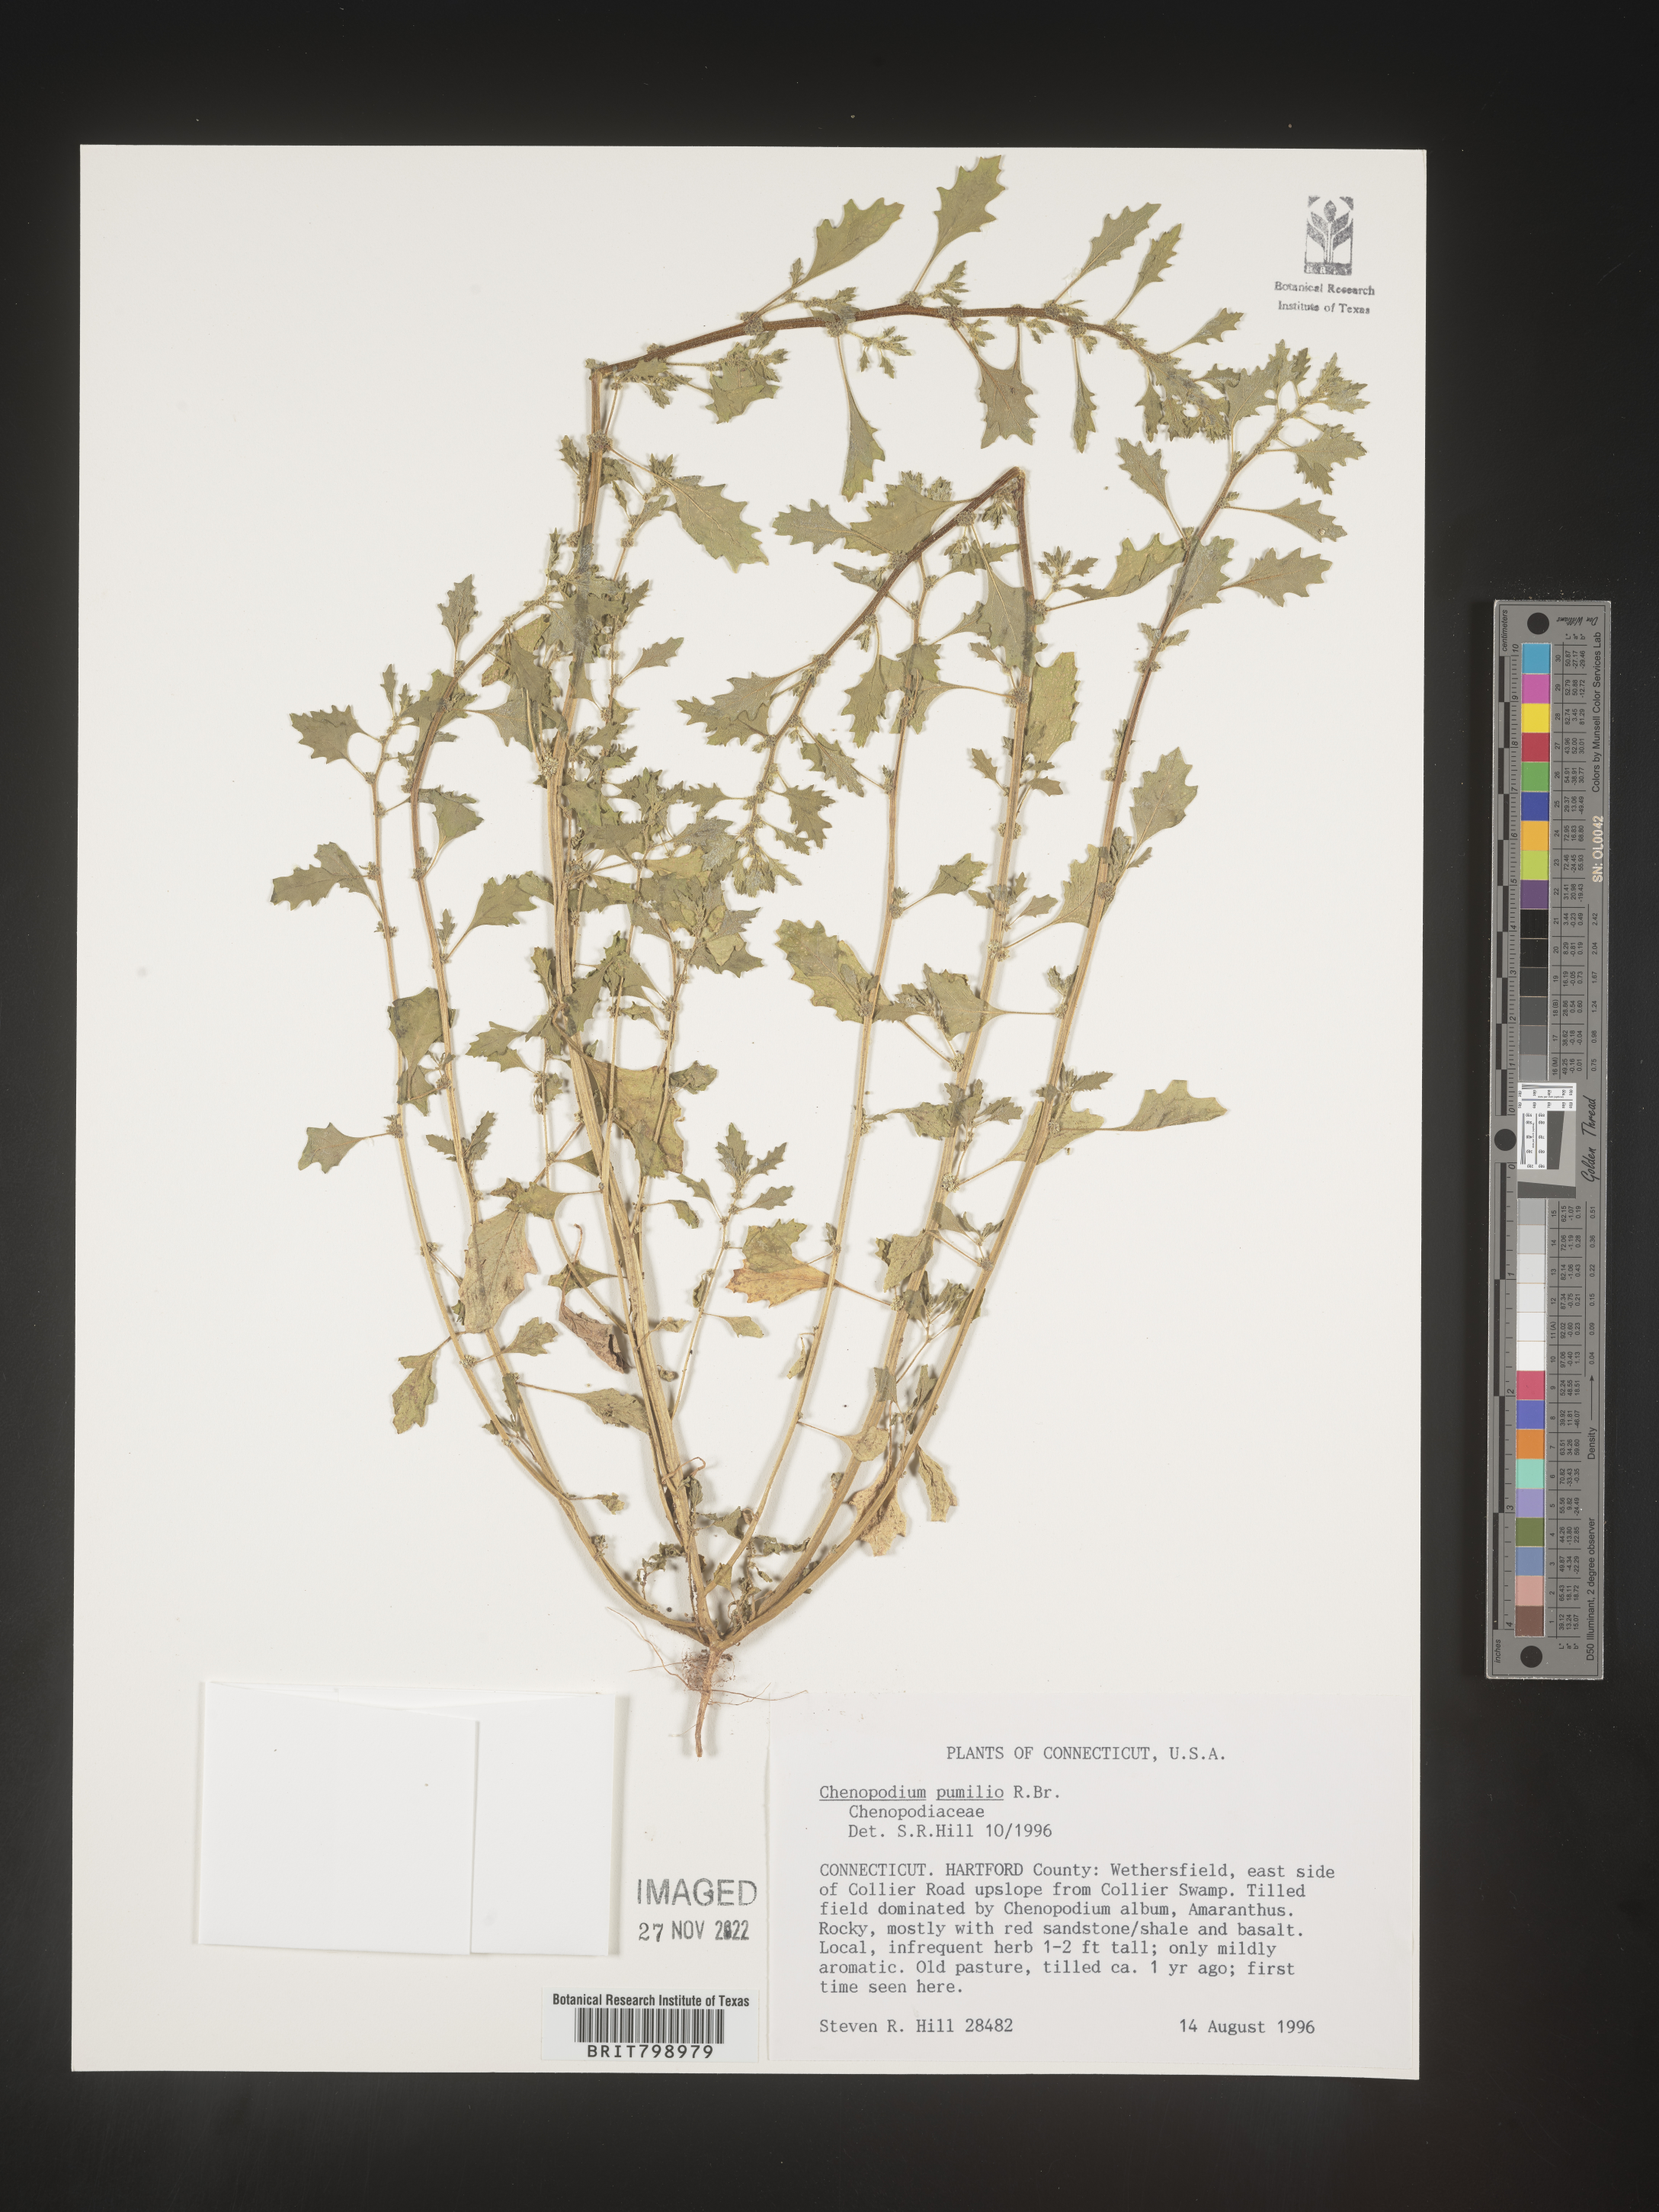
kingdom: Plantae
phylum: Tracheophyta
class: Magnoliopsida
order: Caryophyllales
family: Amaranthaceae
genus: Dysphania
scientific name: Dysphania pumilio
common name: Clammy goosefoot
